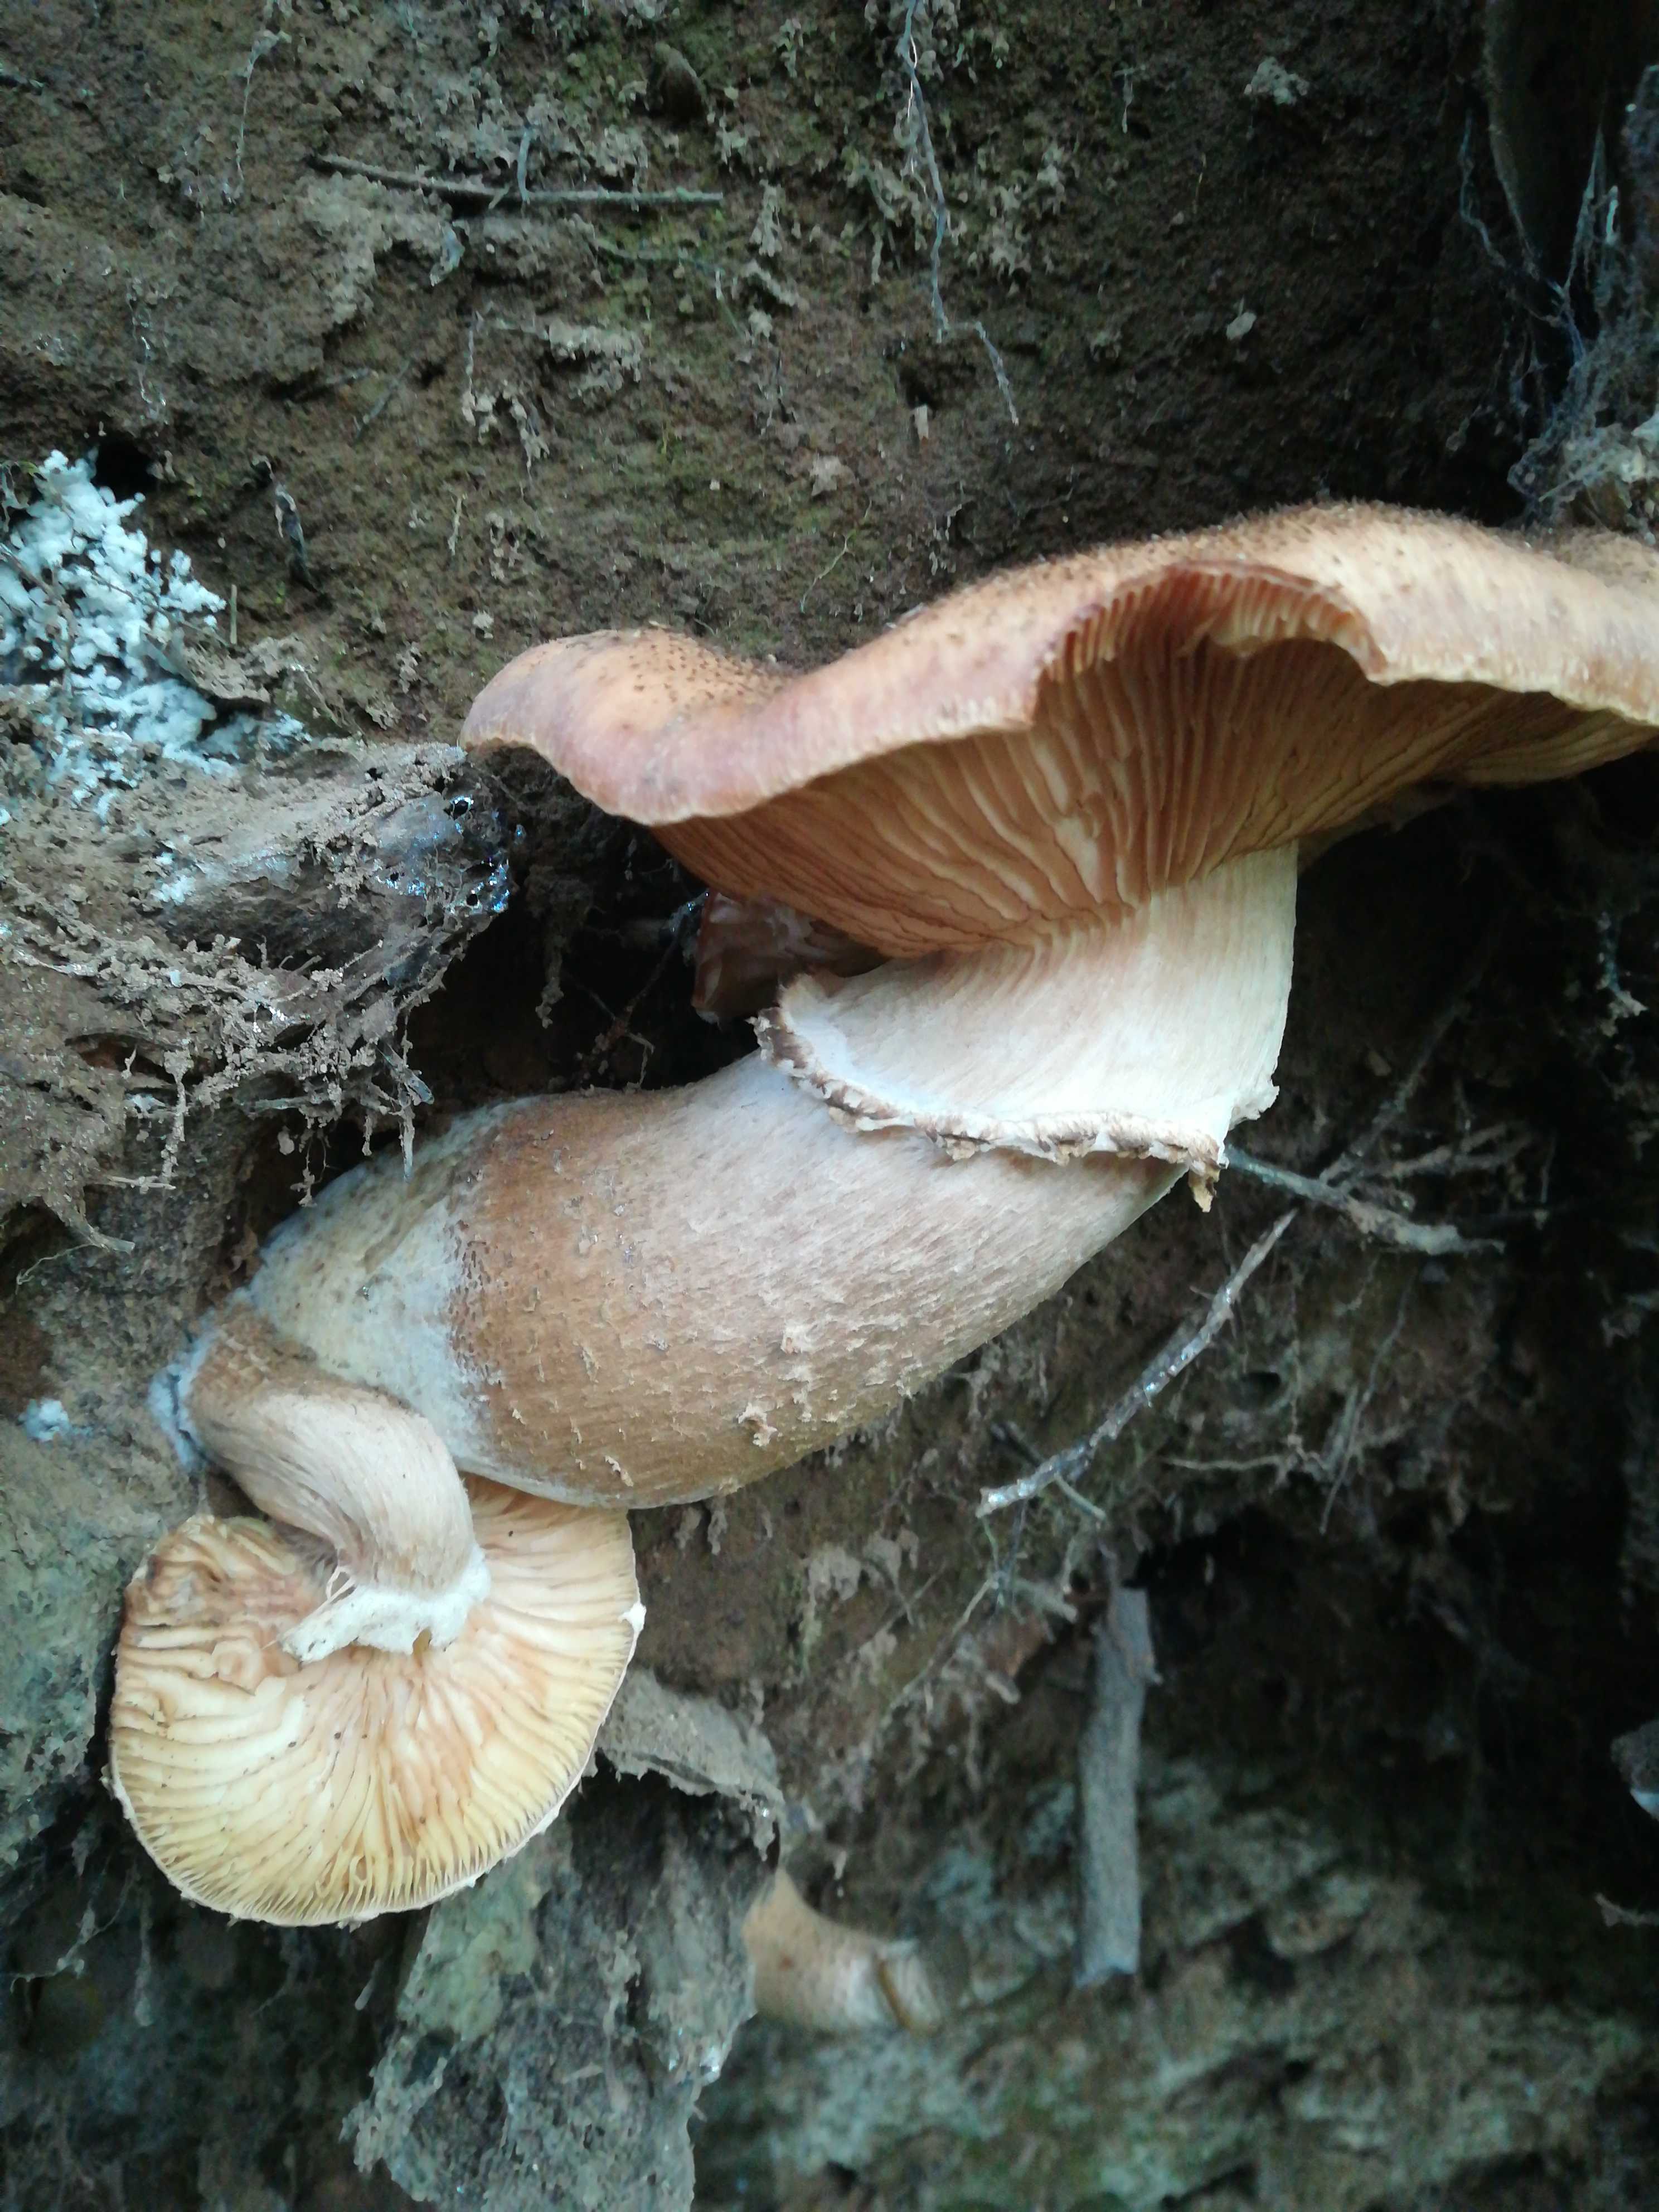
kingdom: Fungi
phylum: Basidiomycota
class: Agaricomycetes
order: Agaricales
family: Physalacriaceae
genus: Armillaria
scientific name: Armillaria lutea
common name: køllestokket honningsvamp
